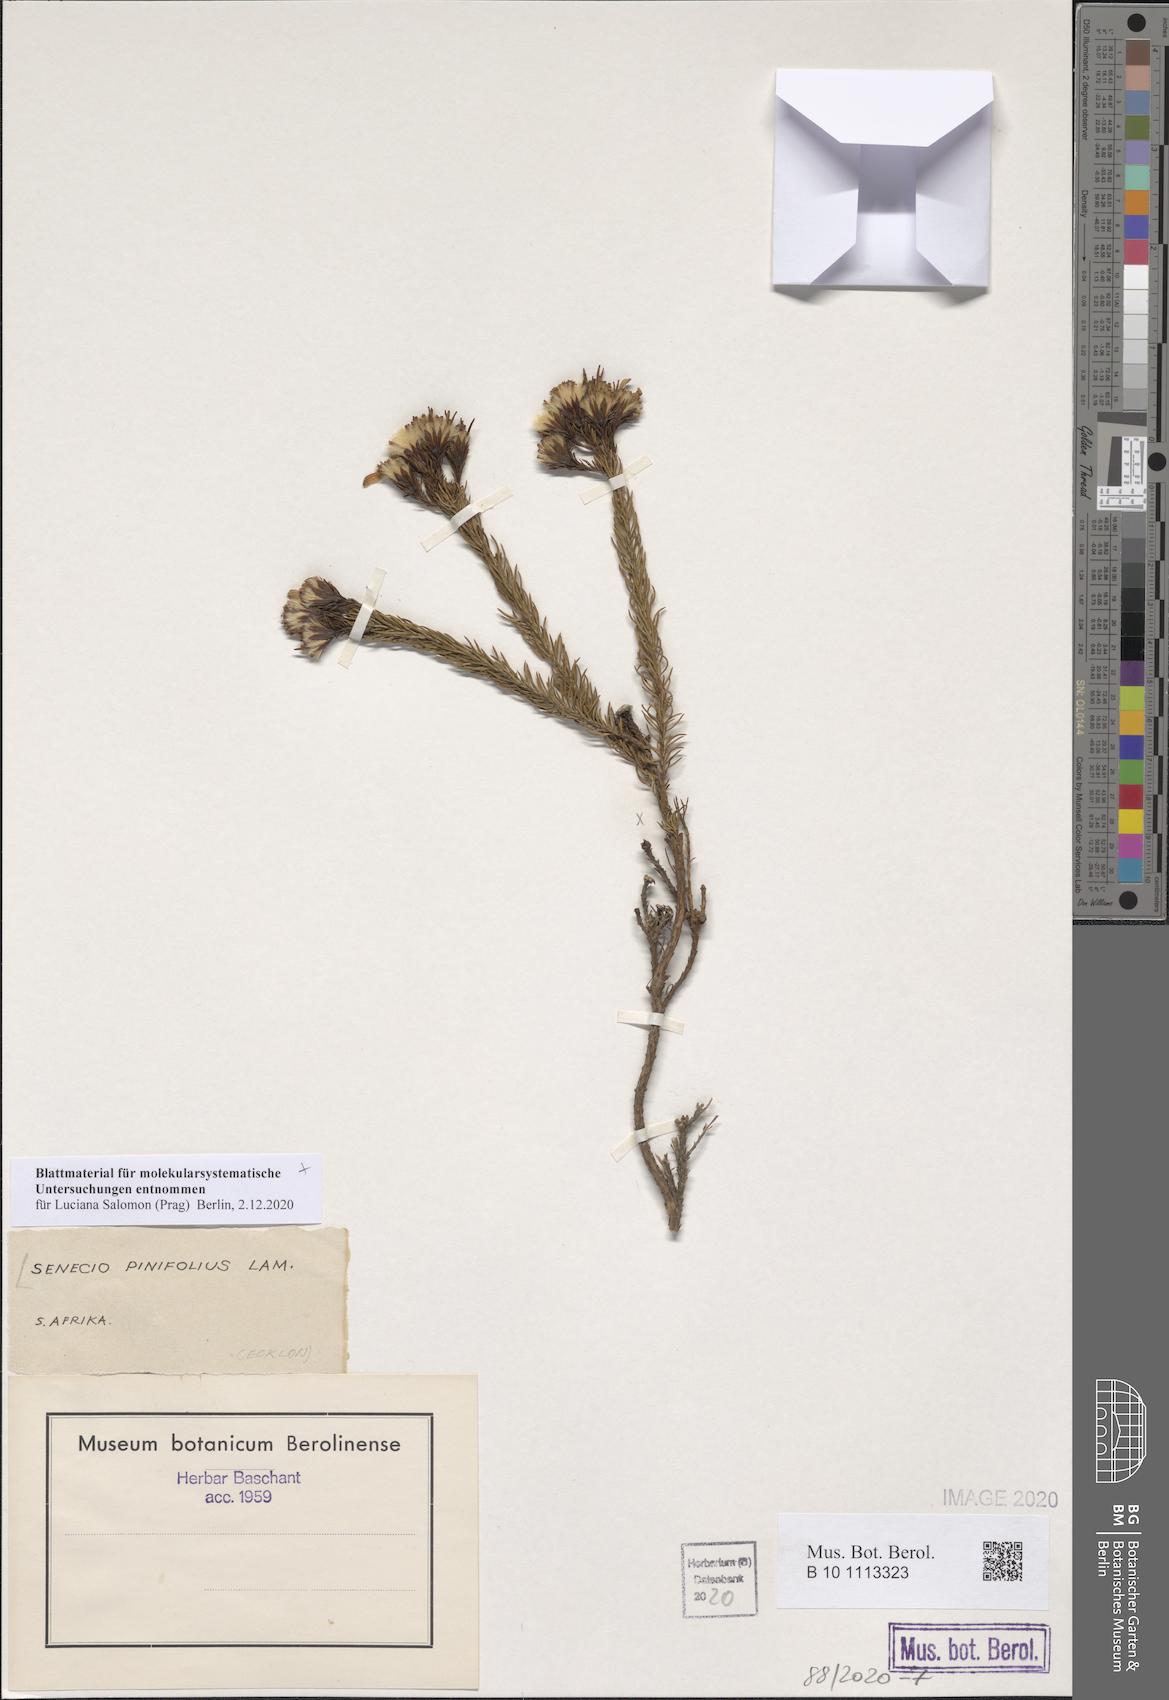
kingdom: Plantae
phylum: Tracheophyta
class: Magnoliopsida
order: Asterales
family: Asteraceae
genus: Senecio
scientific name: Senecio pinifolius
